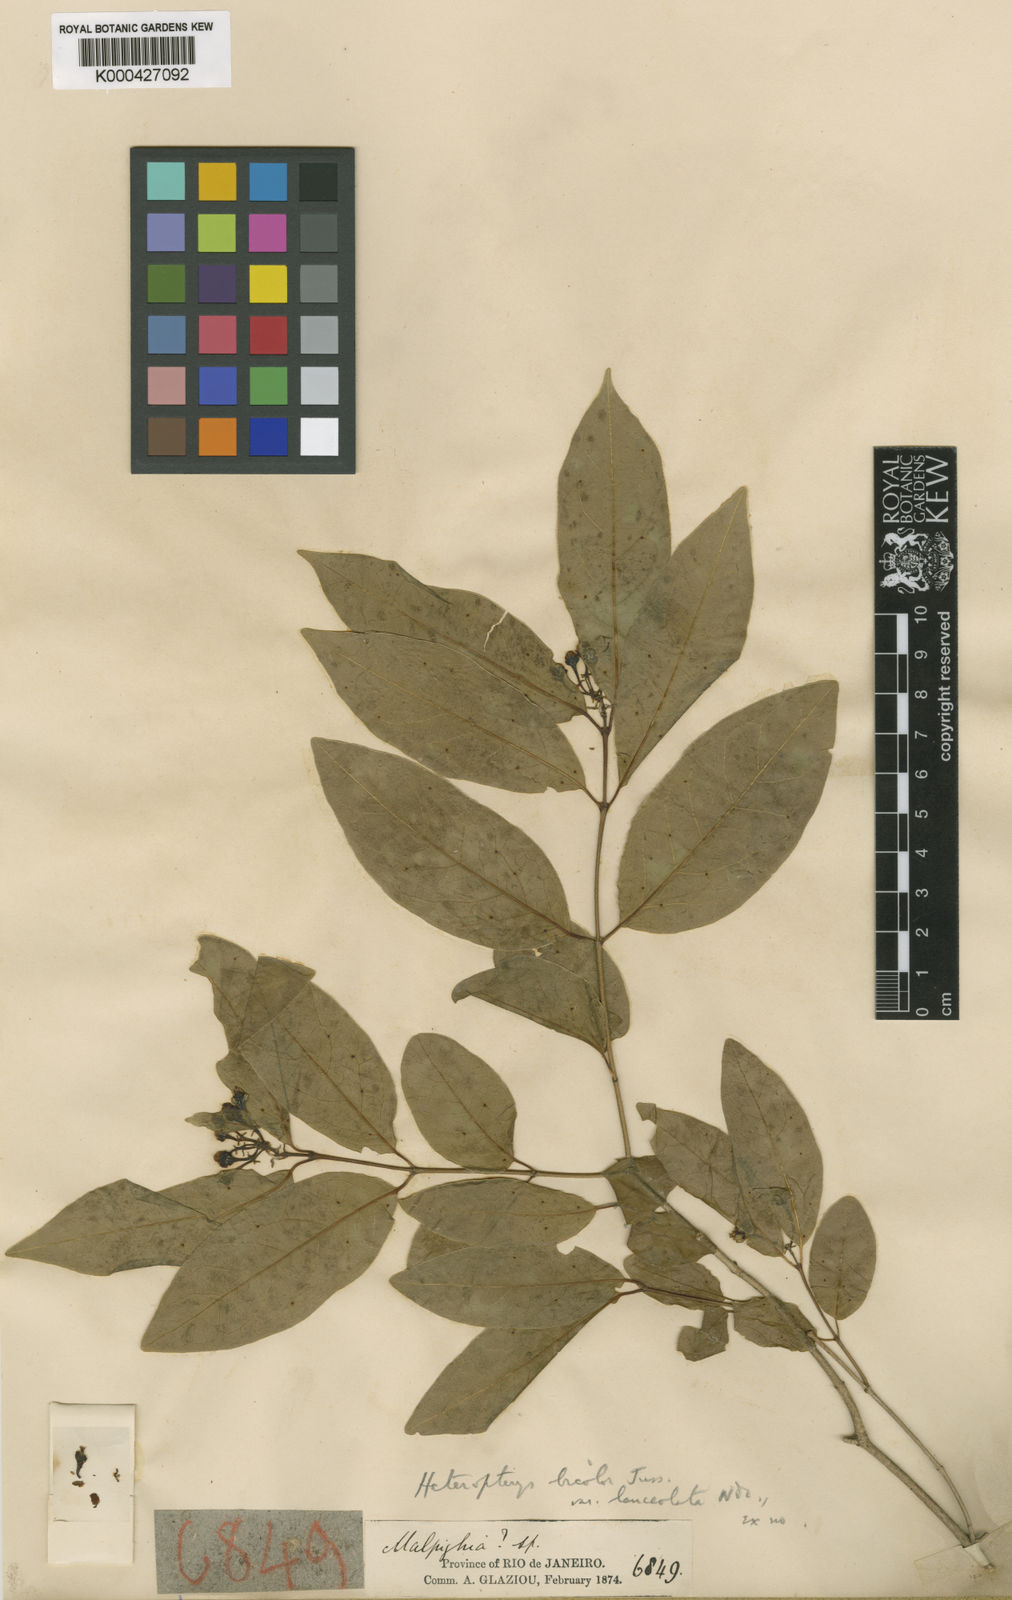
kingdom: Plantae
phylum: Tracheophyta
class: Magnoliopsida
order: Malpighiales
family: Malpighiaceae
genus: Heteropterys
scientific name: Heteropterys bicolor
